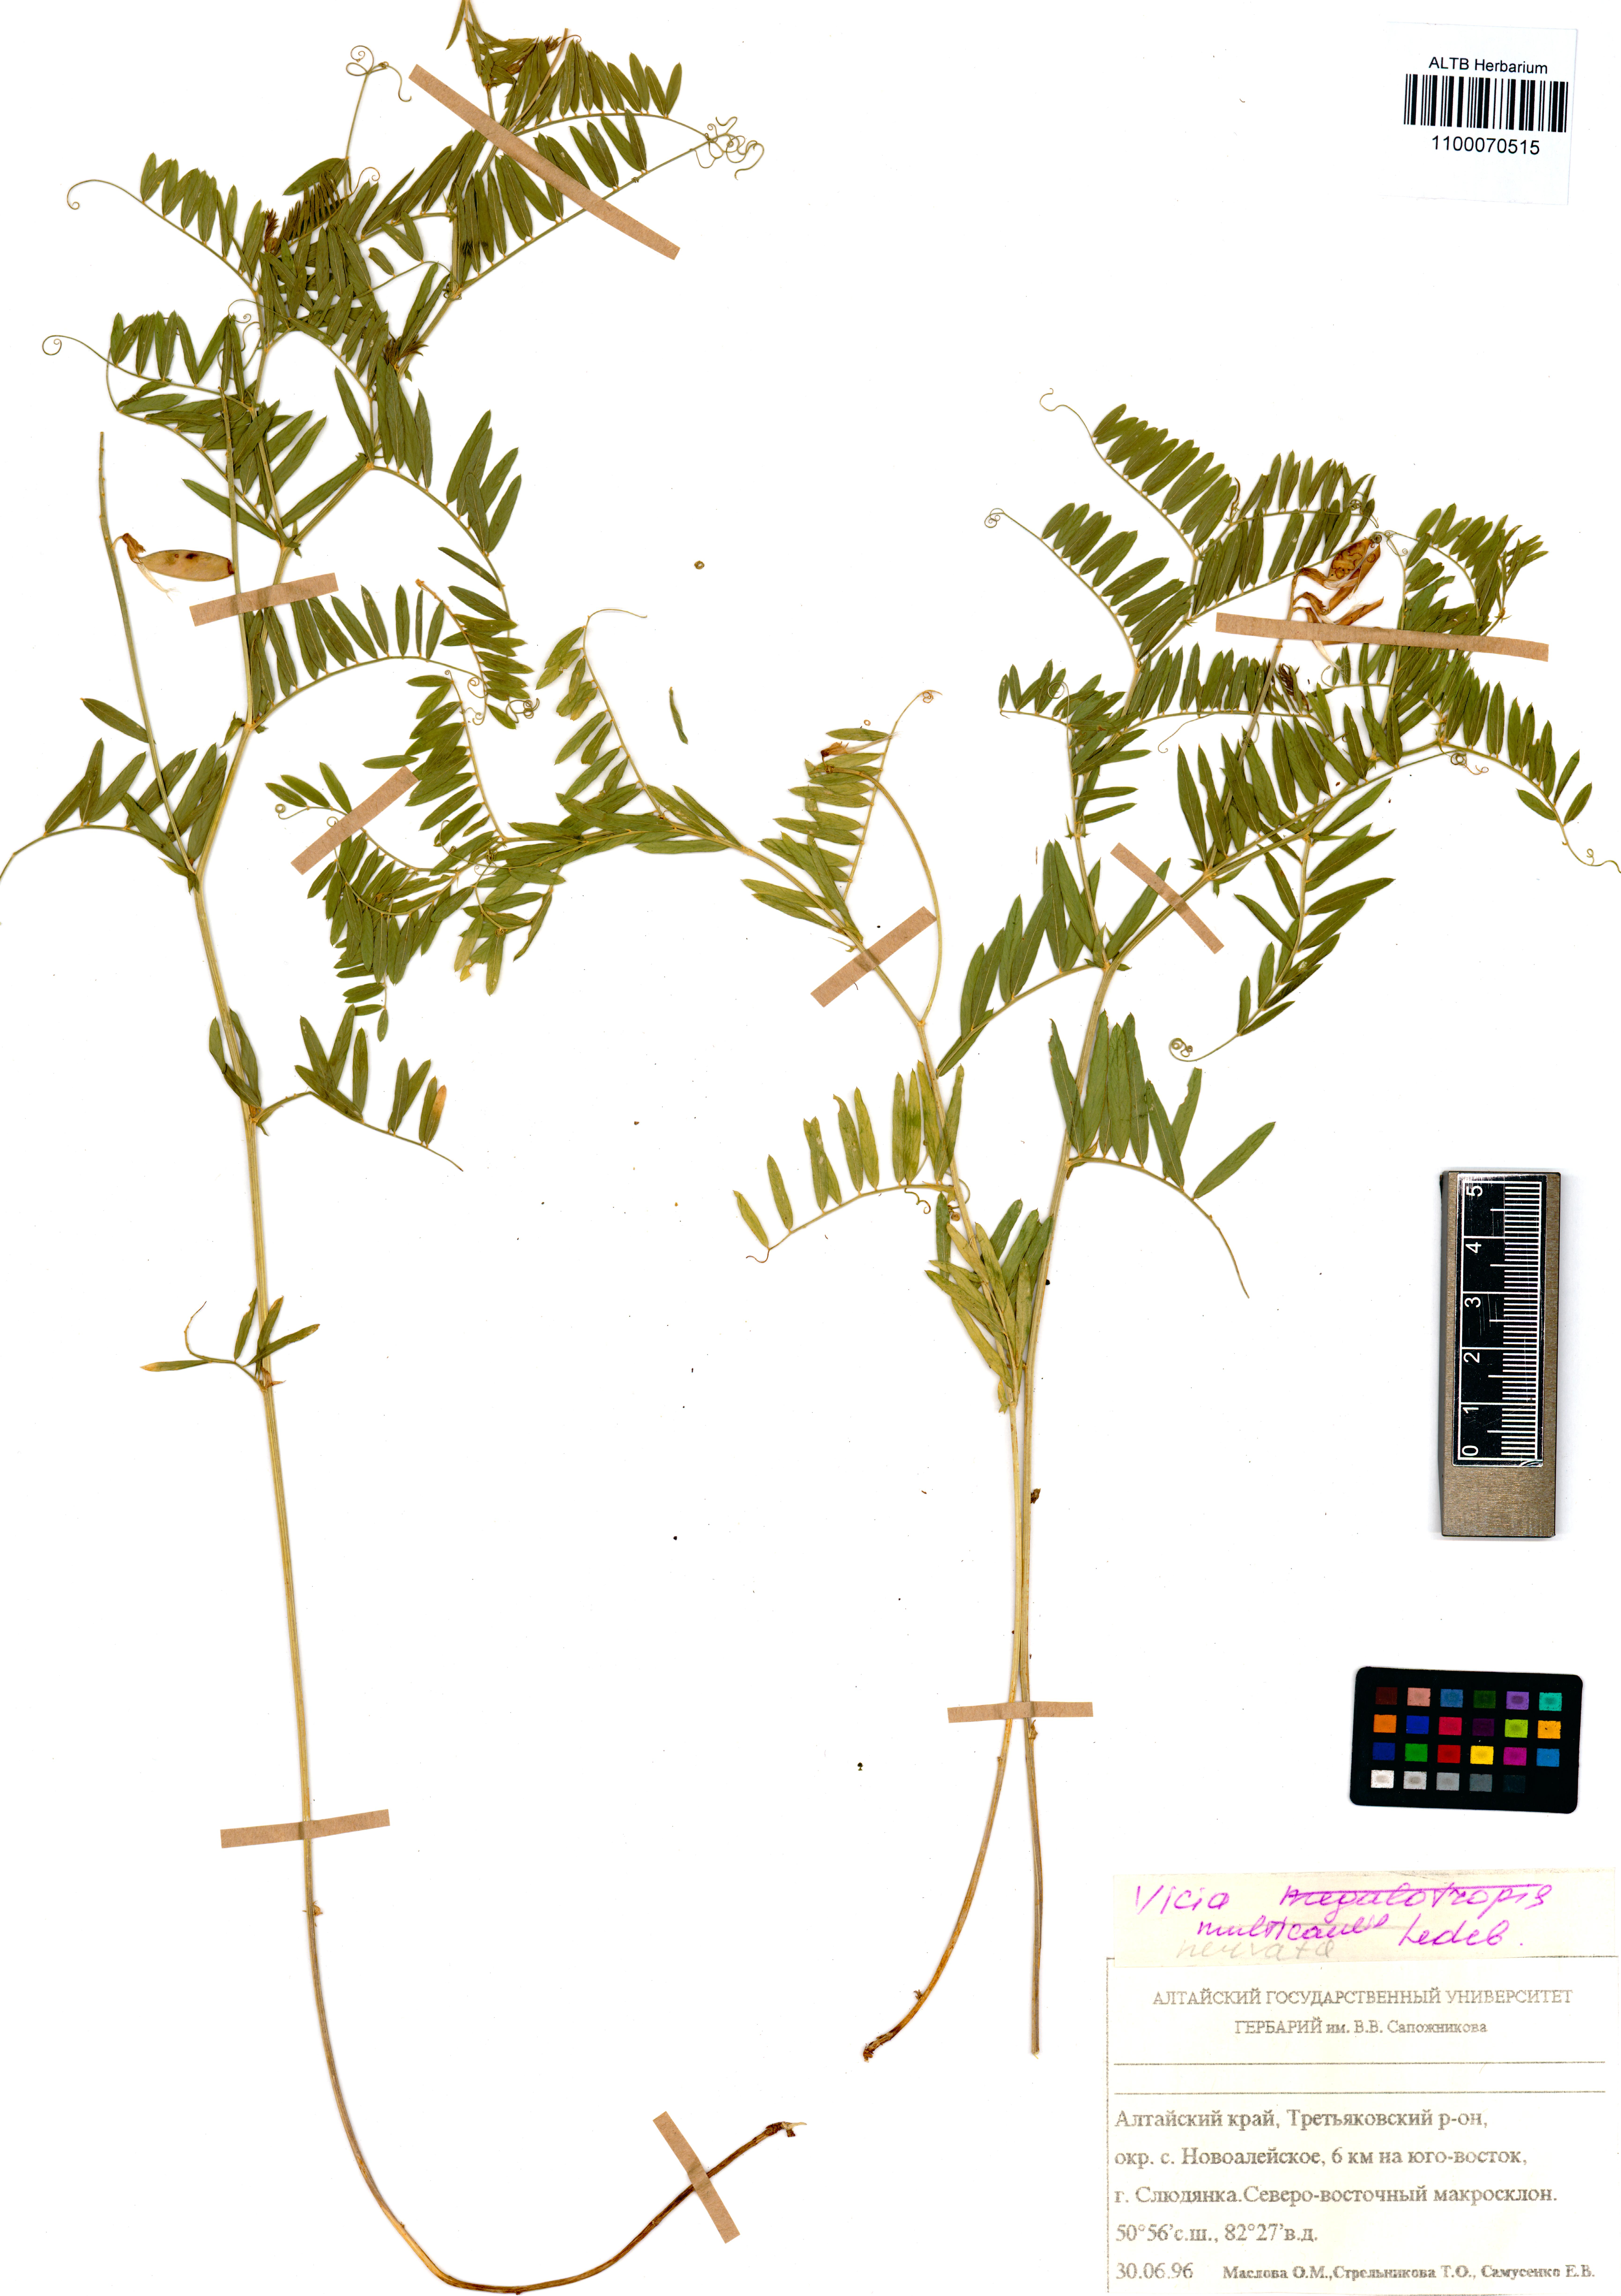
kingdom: Plantae
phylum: Tracheophyta
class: Magnoliopsida
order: Fabales
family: Fabaceae
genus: Vicia
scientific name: Vicia multicaulis
